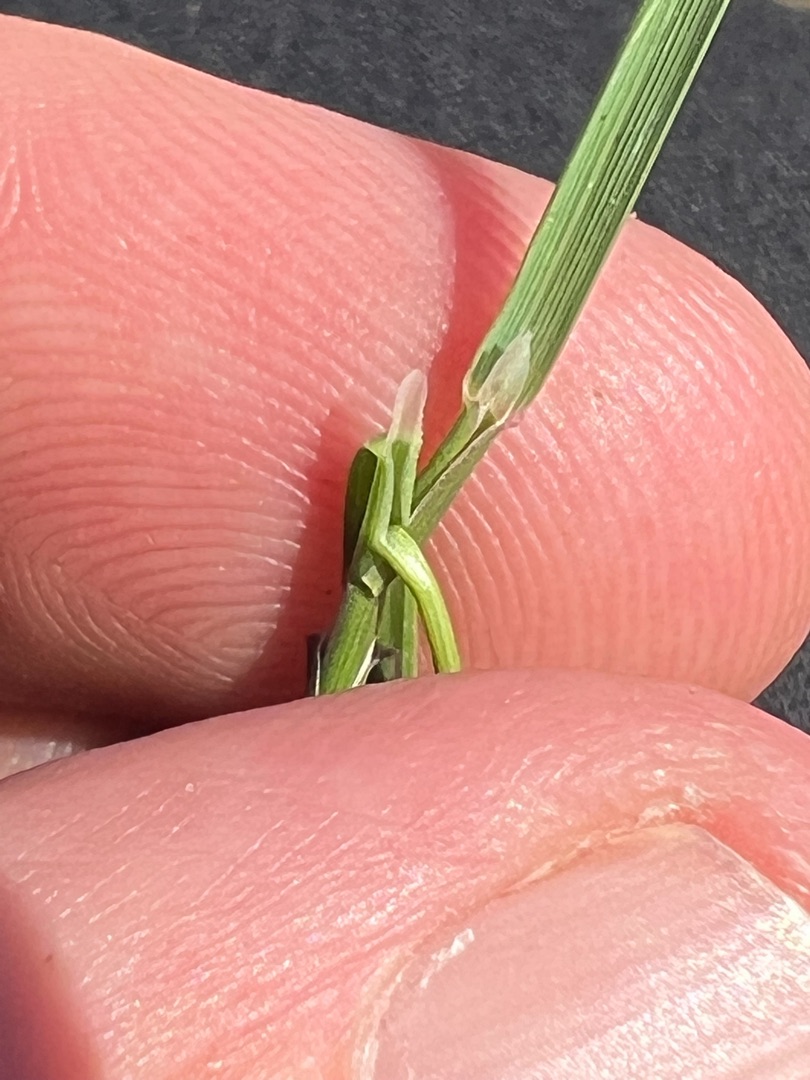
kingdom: Plantae
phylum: Tracheophyta
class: Liliopsida
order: Poales
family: Poaceae
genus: Agrostis
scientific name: Agrostis vinealis
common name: Sand-hvene
